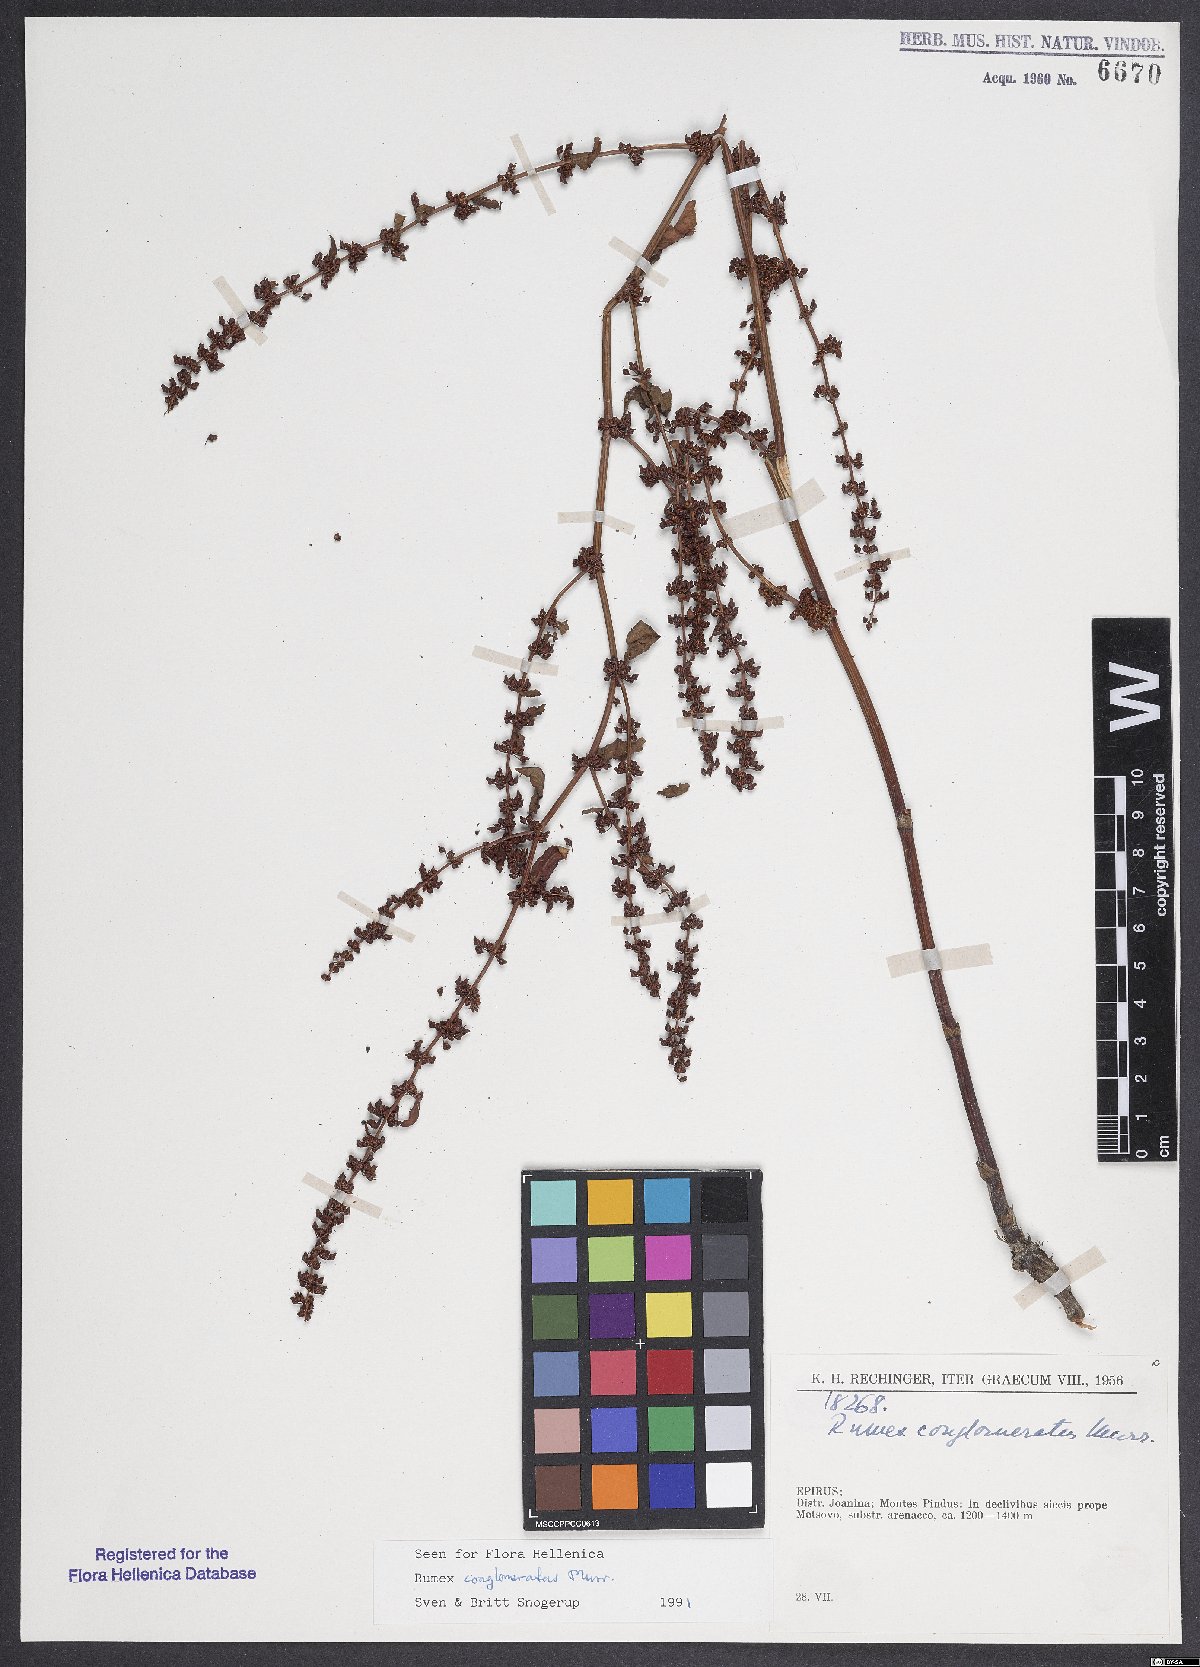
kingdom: Plantae
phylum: Tracheophyta
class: Magnoliopsida
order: Caryophyllales
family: Polygonaceae
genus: Rumex
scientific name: Rumex conglomeratus
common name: Clustered dock
